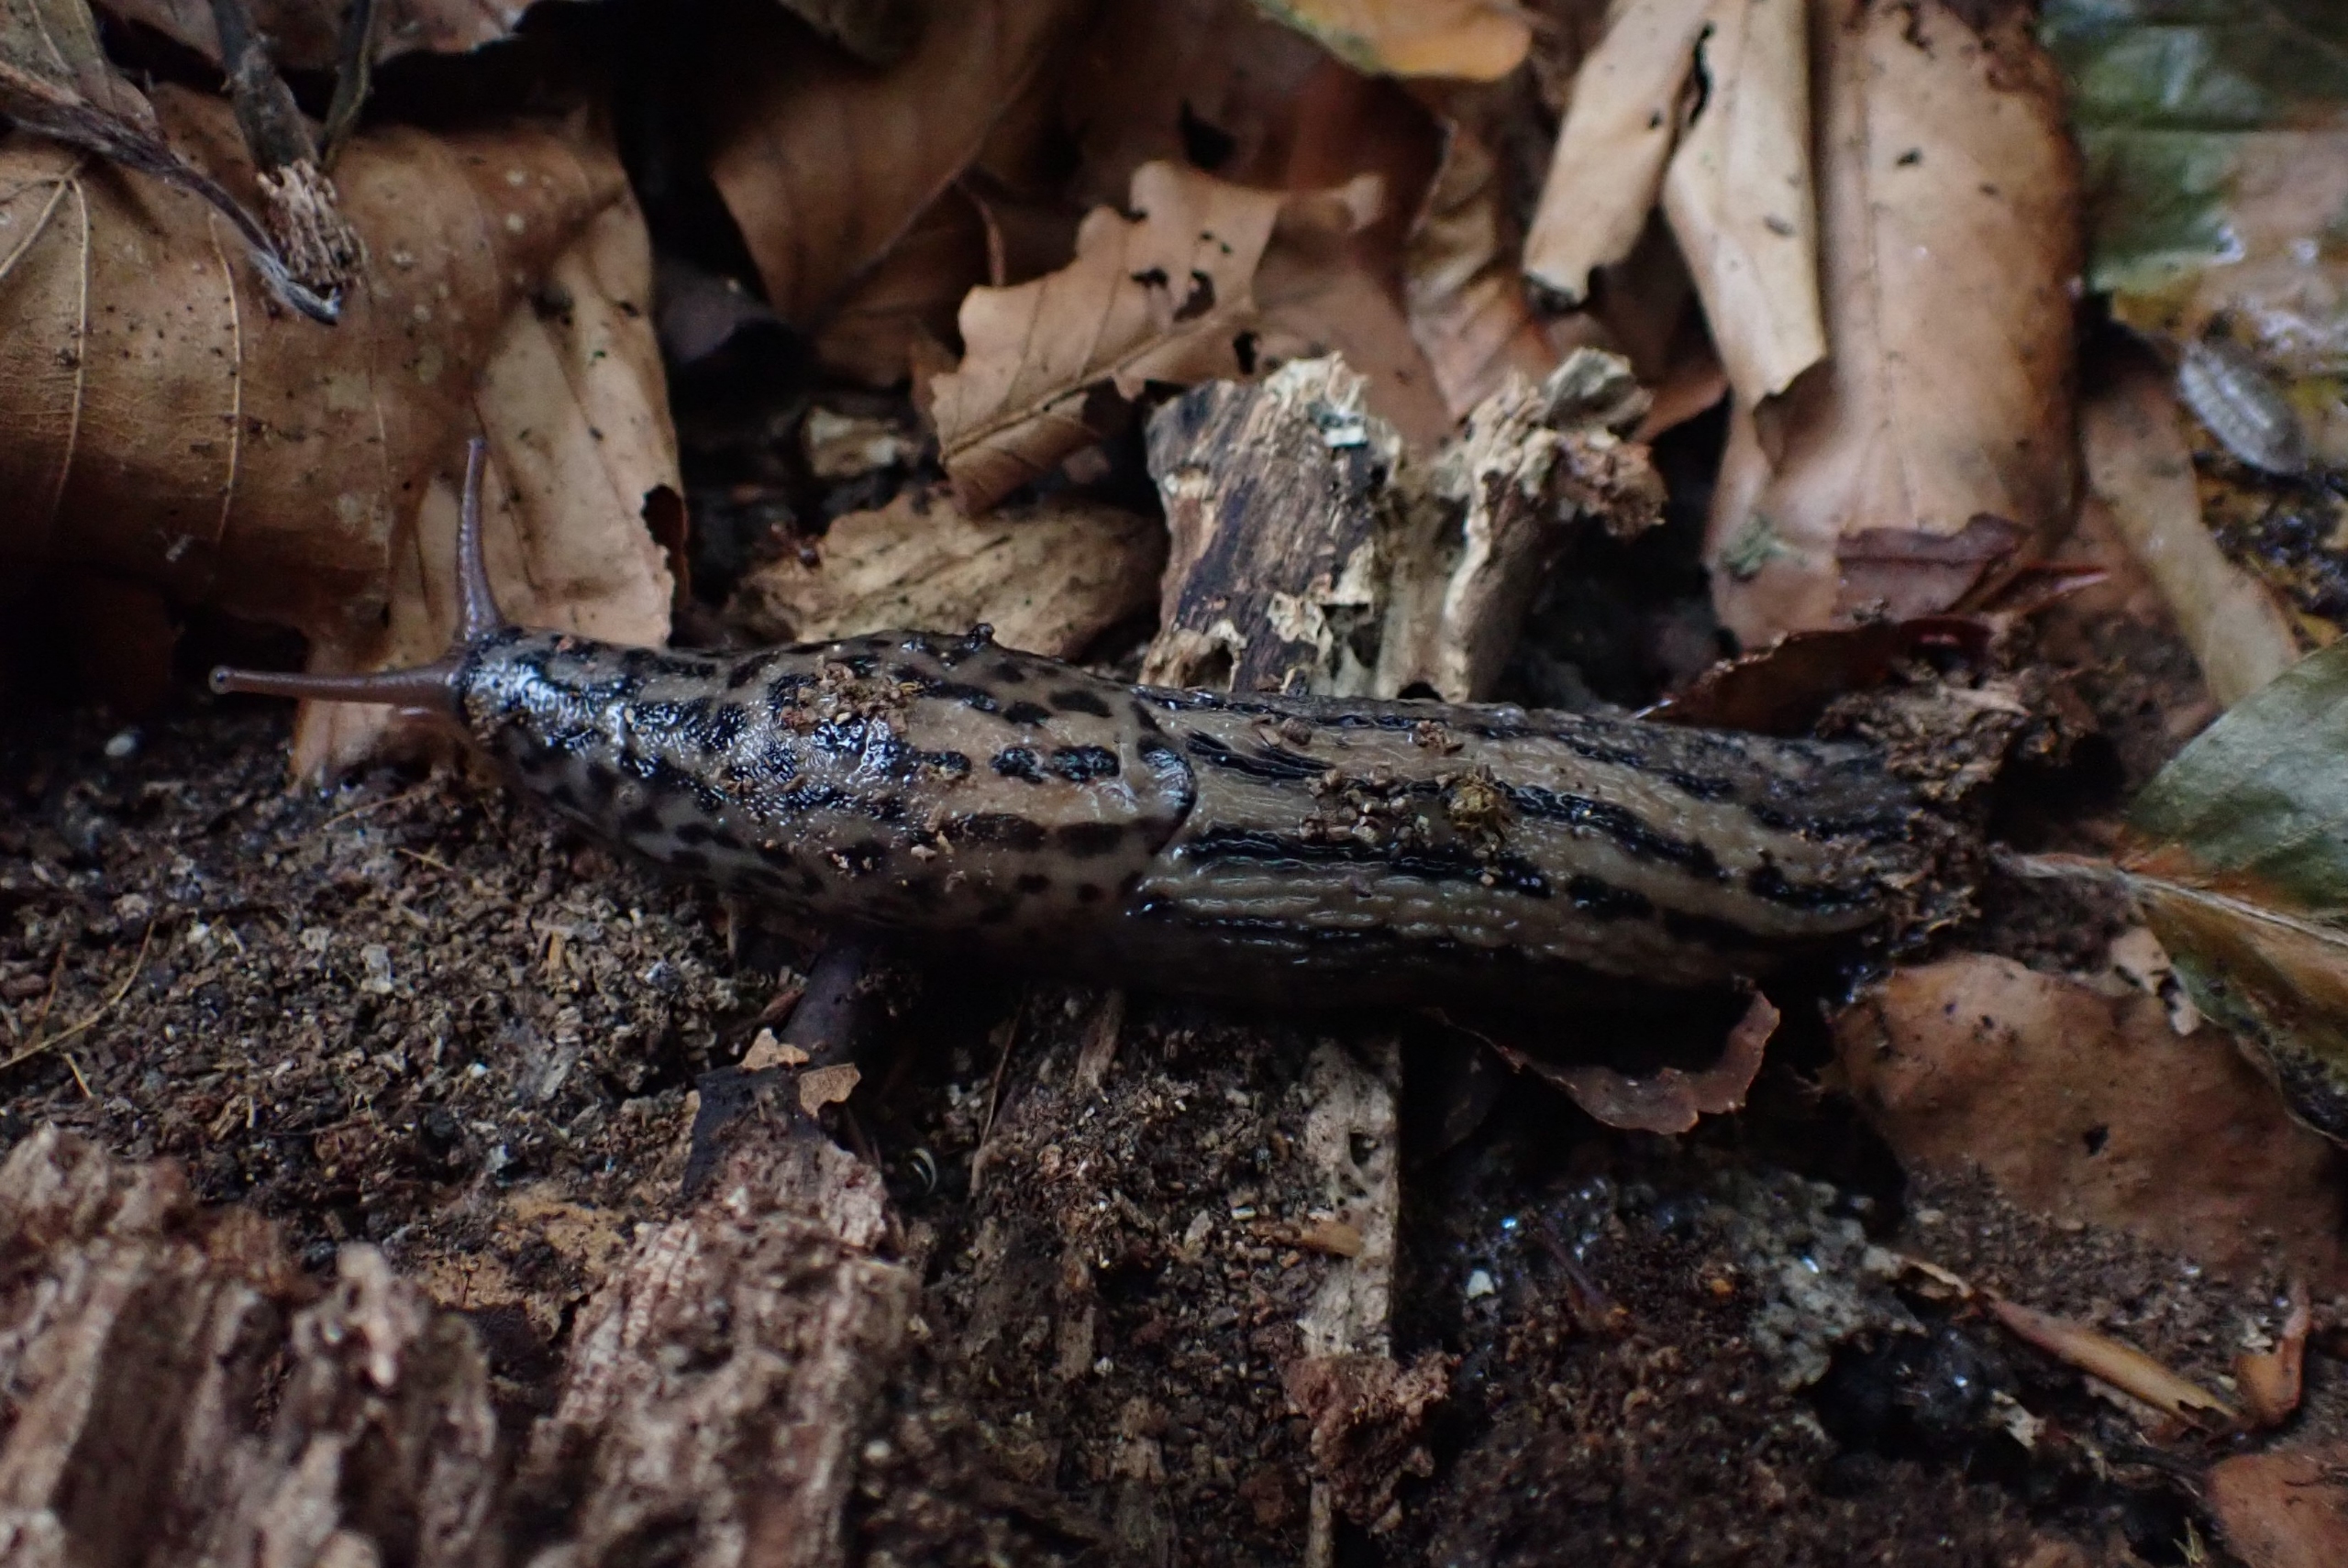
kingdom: Animalia
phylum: Mollusca
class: Gastropoda
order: Stylommatophora
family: Limacidae
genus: Limax
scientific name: Limax maximus
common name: Pantersnegl
